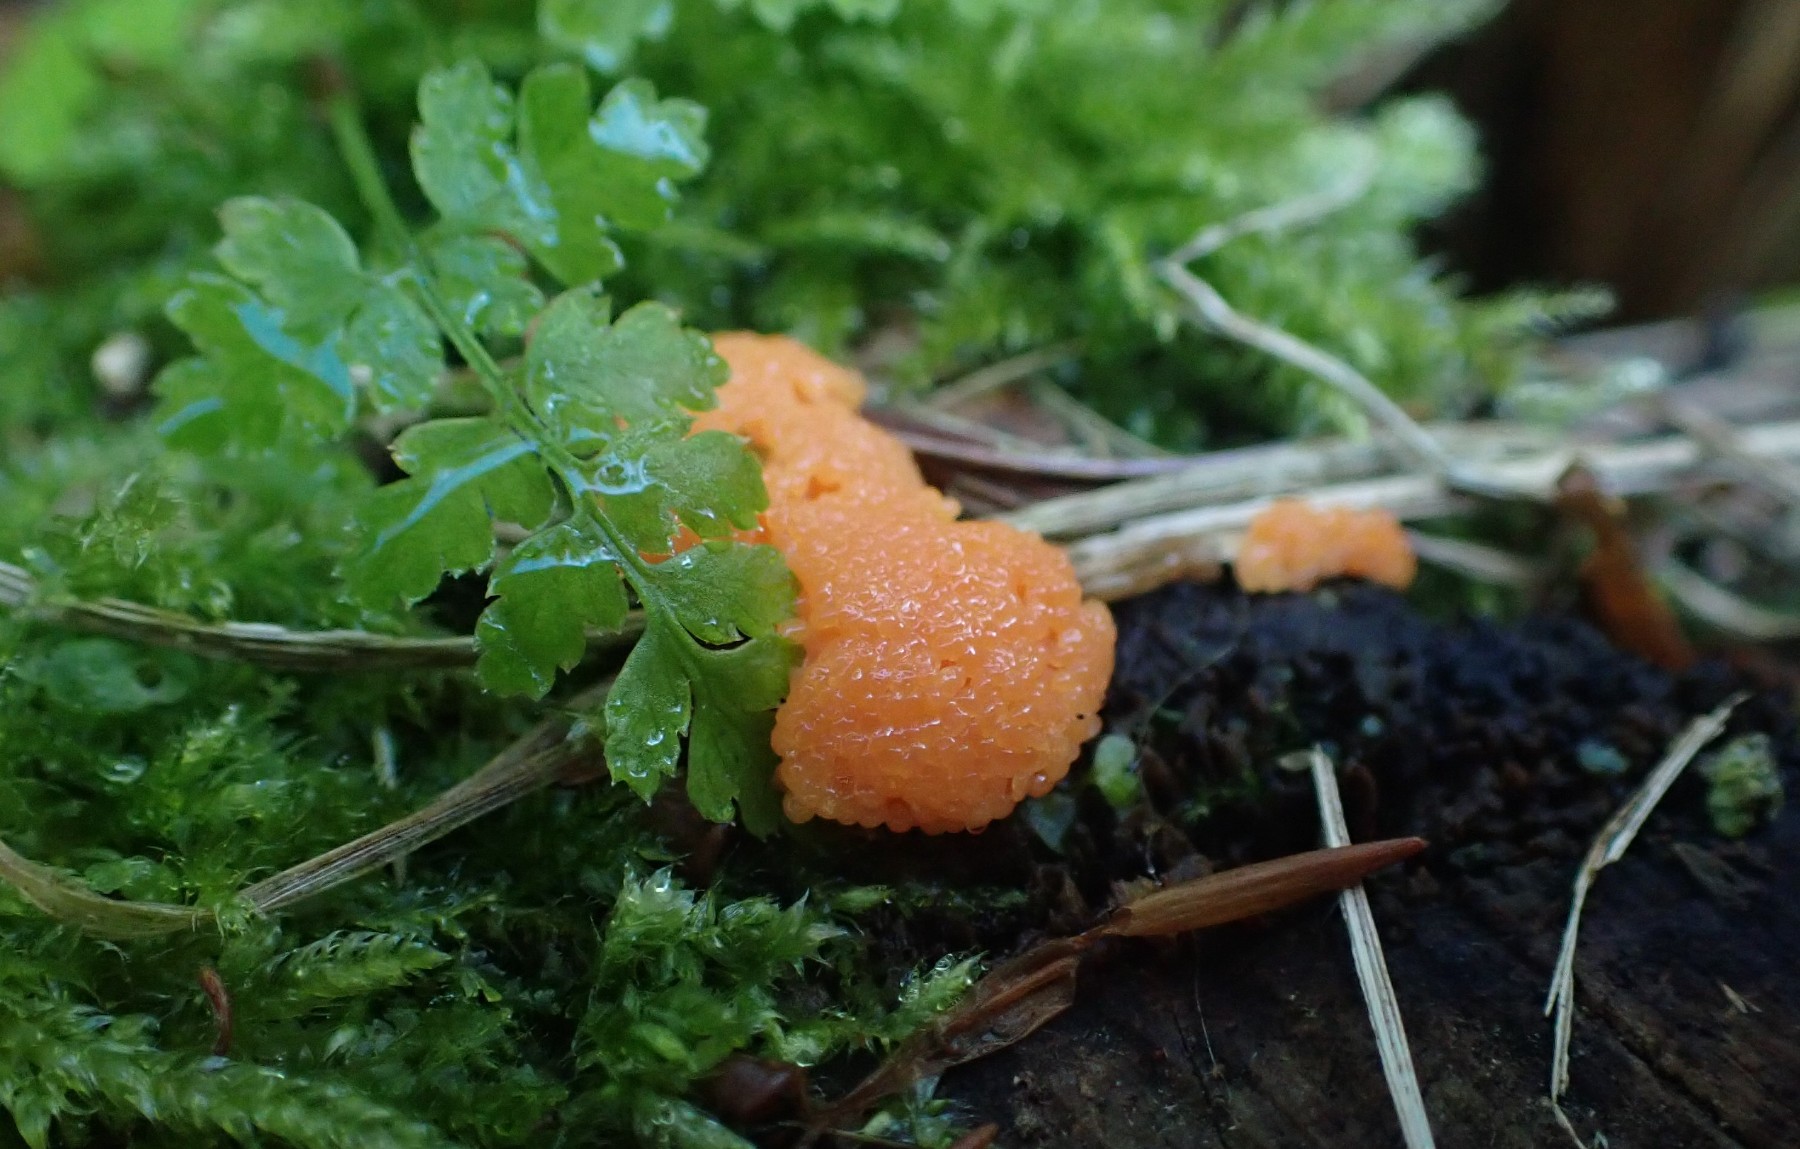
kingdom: Protozoa
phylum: Mycetozoa
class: Myxomycetes
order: Cribrariales
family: Tubiferaceae
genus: Tubifera
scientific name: Tubifera ferruginosa
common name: kanel-støvrør
